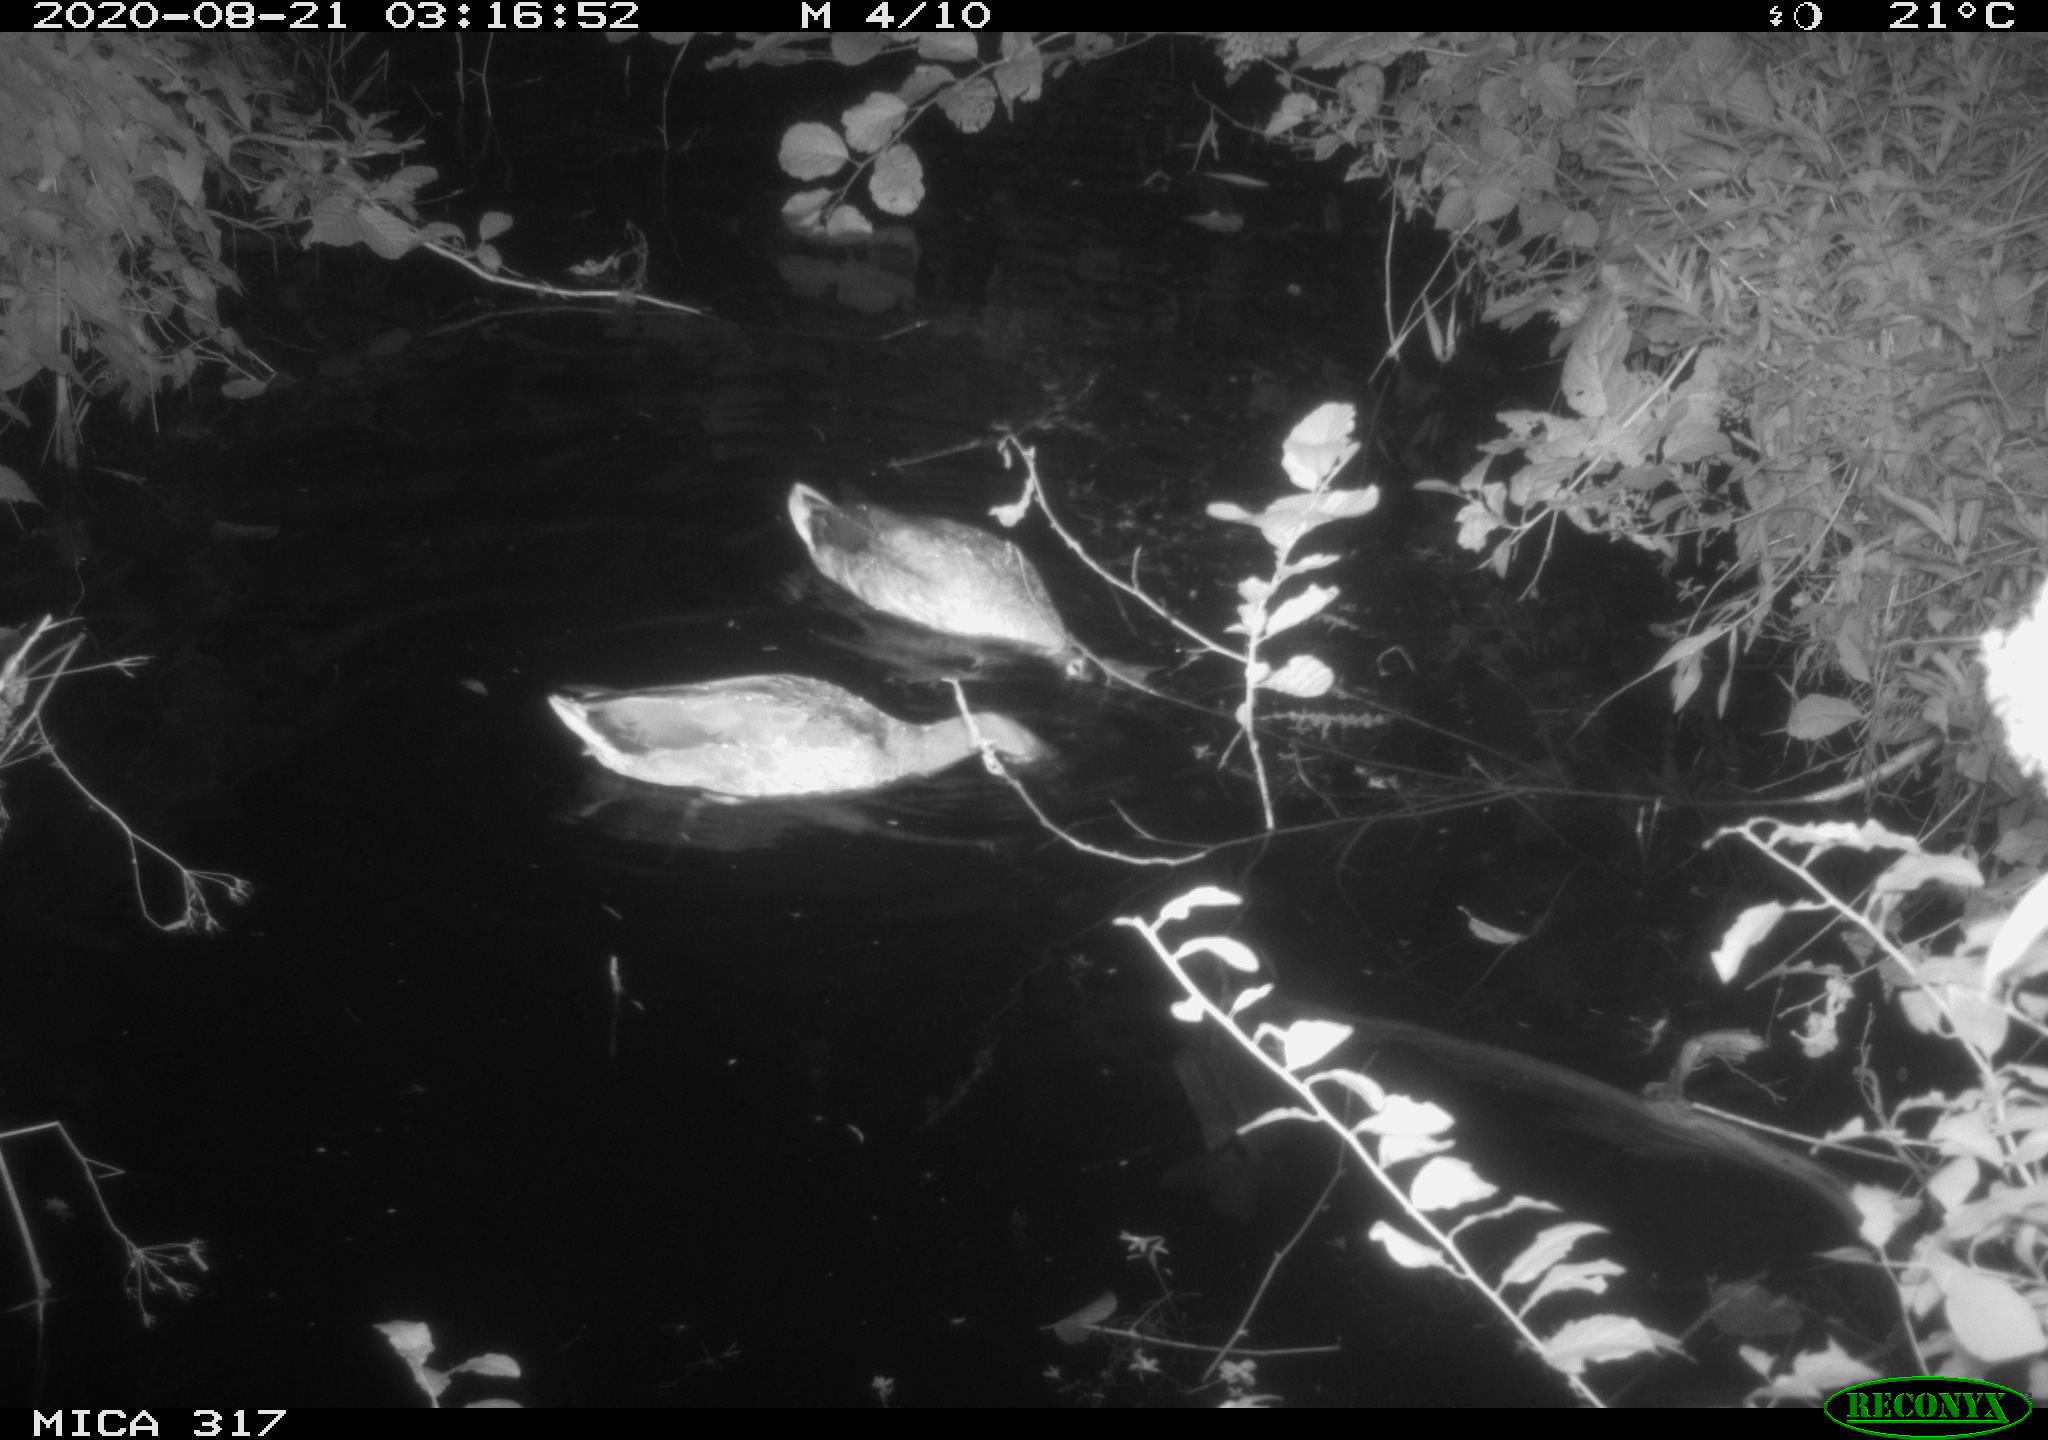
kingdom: Animalia
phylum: Chordata
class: Aves
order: Anseriformes
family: Anatidae
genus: Anas
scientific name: Anas platyrhynchos
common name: Mallard
